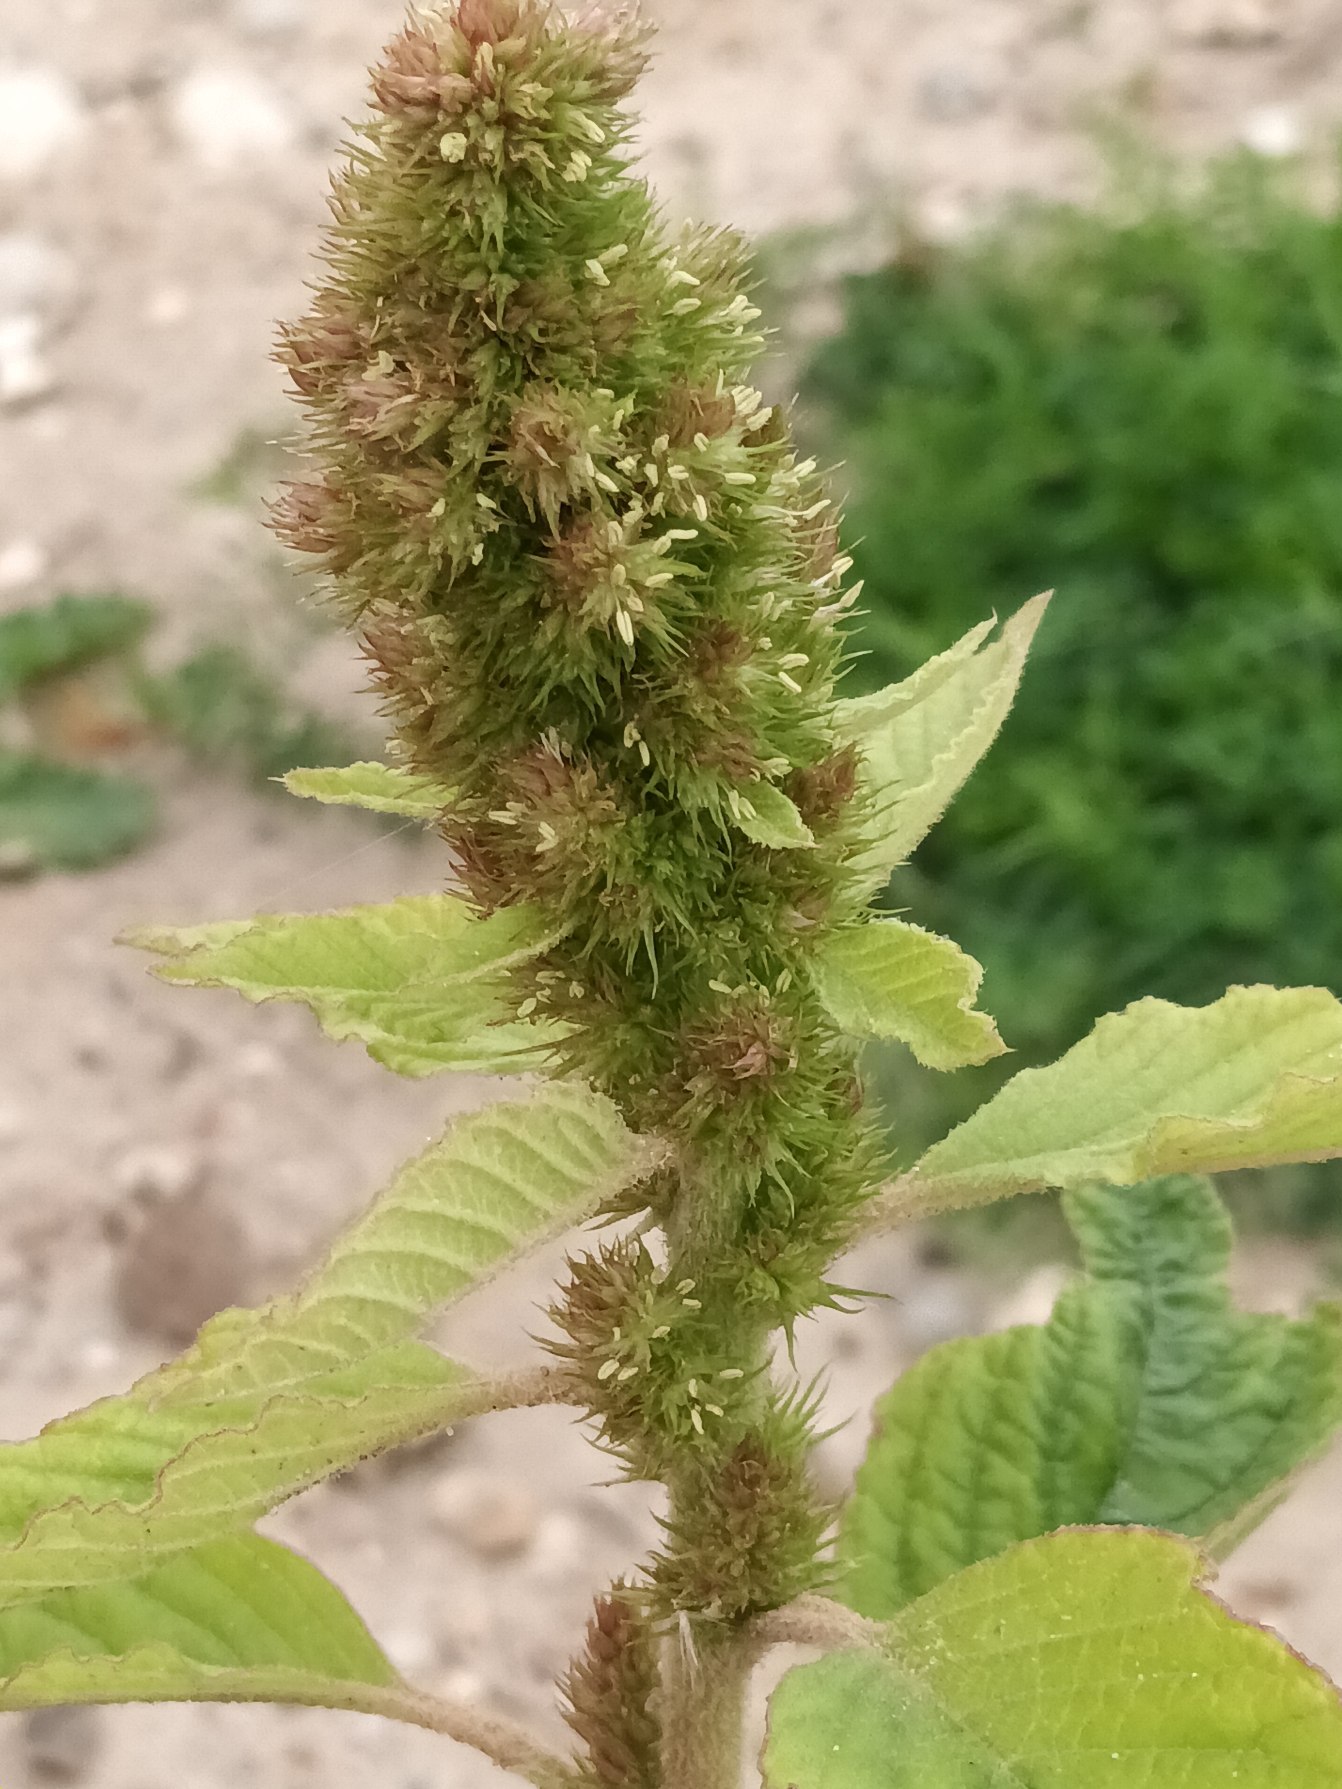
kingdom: Plantae
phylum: Tracheophyta
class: Magnoliopsida
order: Caryophyllales
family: Amaranthaceae
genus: Amaranthus
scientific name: Amaranthus retroflexus
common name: Opret amarant
